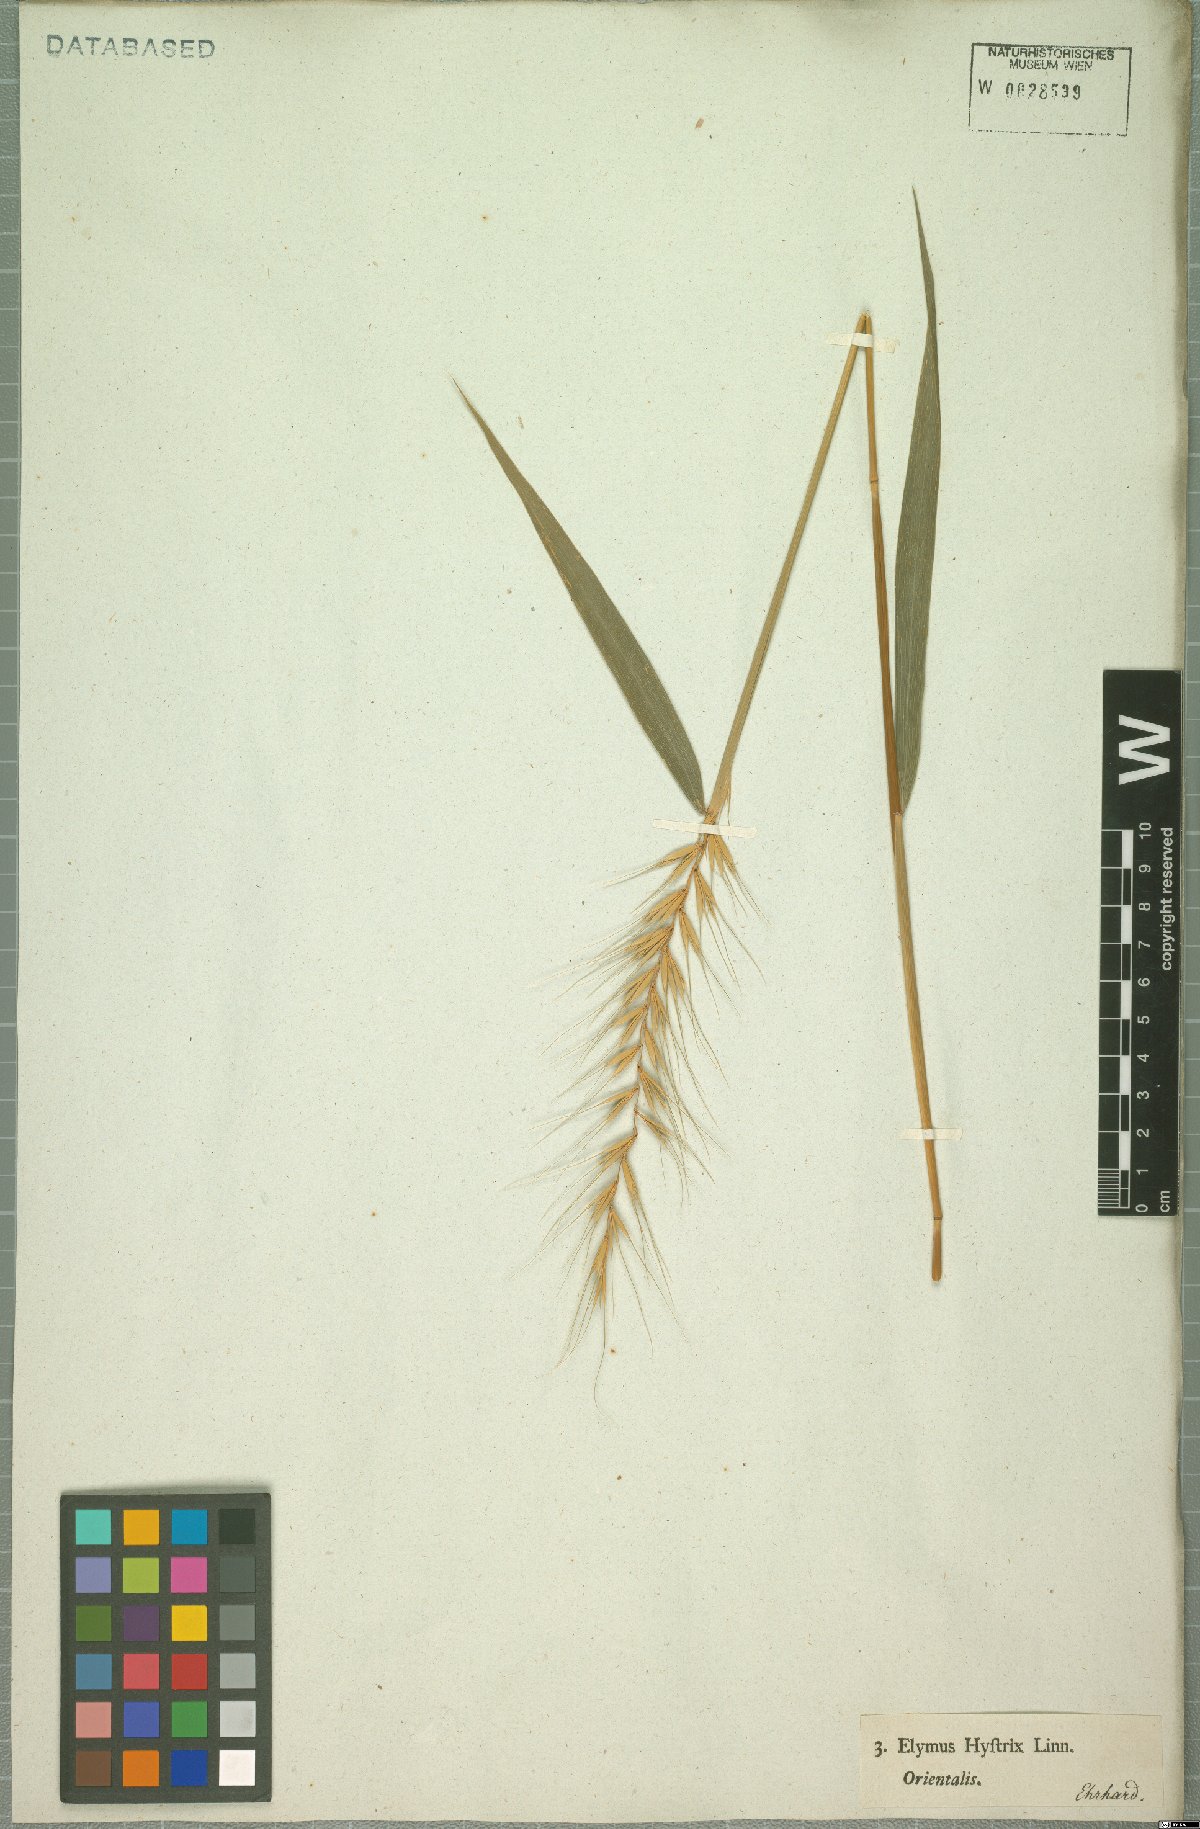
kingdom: Plantae
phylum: Tracheophyta
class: Liliopsida
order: Poales
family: Poaceae
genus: Elymus
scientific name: Elymus hystrix
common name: Bottlebrush grass
